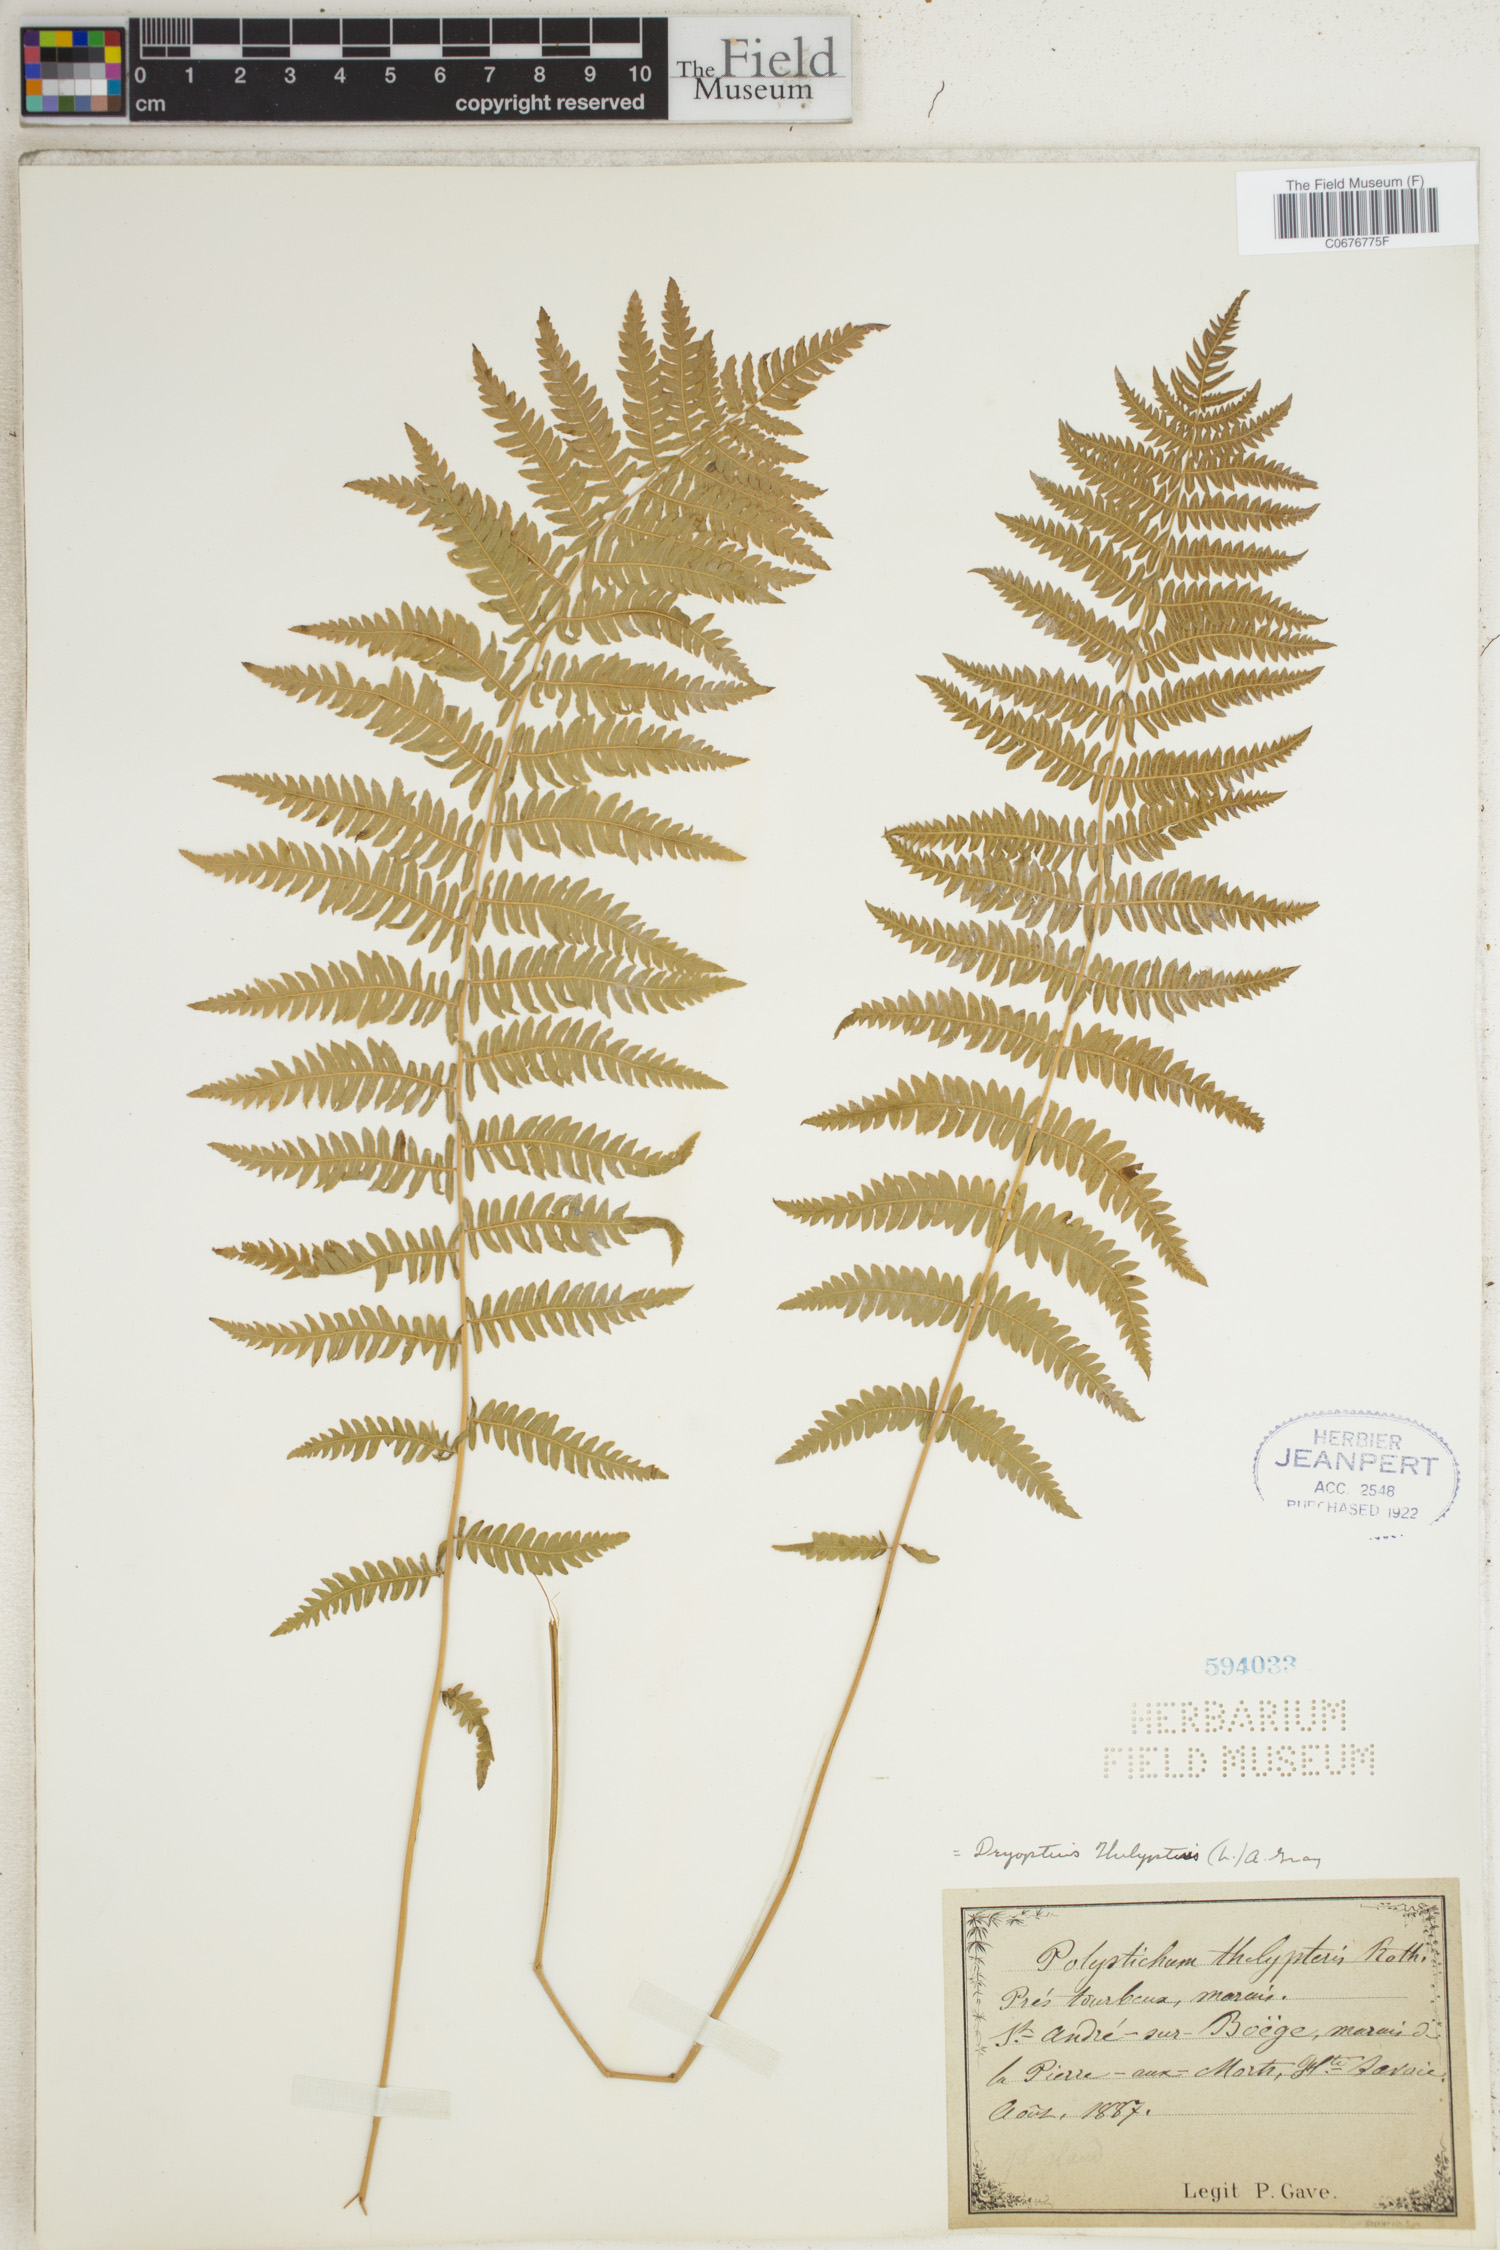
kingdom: Plantae
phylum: Tracheophyta
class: Polypodiopsida
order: Polypodiales
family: Thelypteridaceae
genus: Thelypteris
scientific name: Thelypteris palustris
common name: Marsh fern
